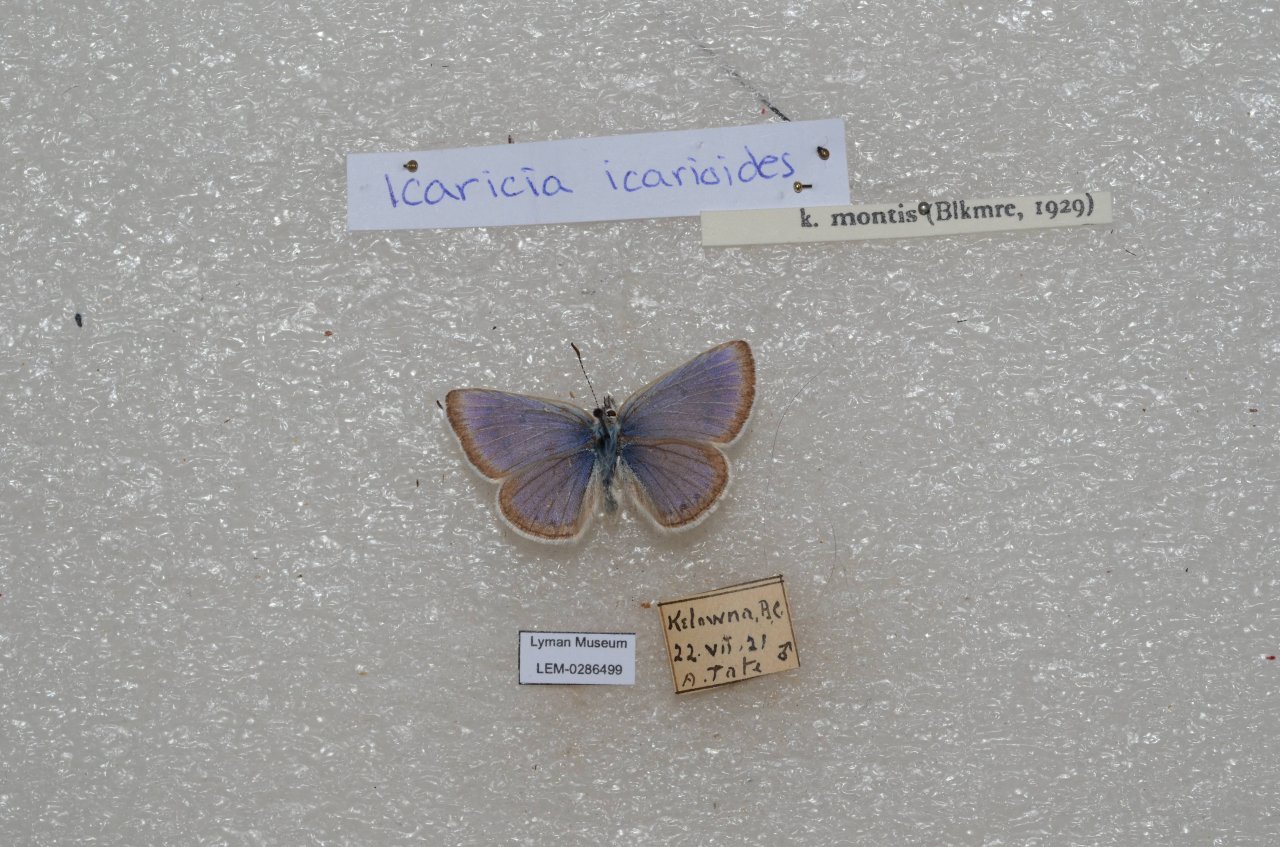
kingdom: Animalia
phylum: Arthropoda
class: Insecta
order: Lepidoptera
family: Lycaenidae
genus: Icaricia
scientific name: Icaricia icarioides
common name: Boisduval's Blue
